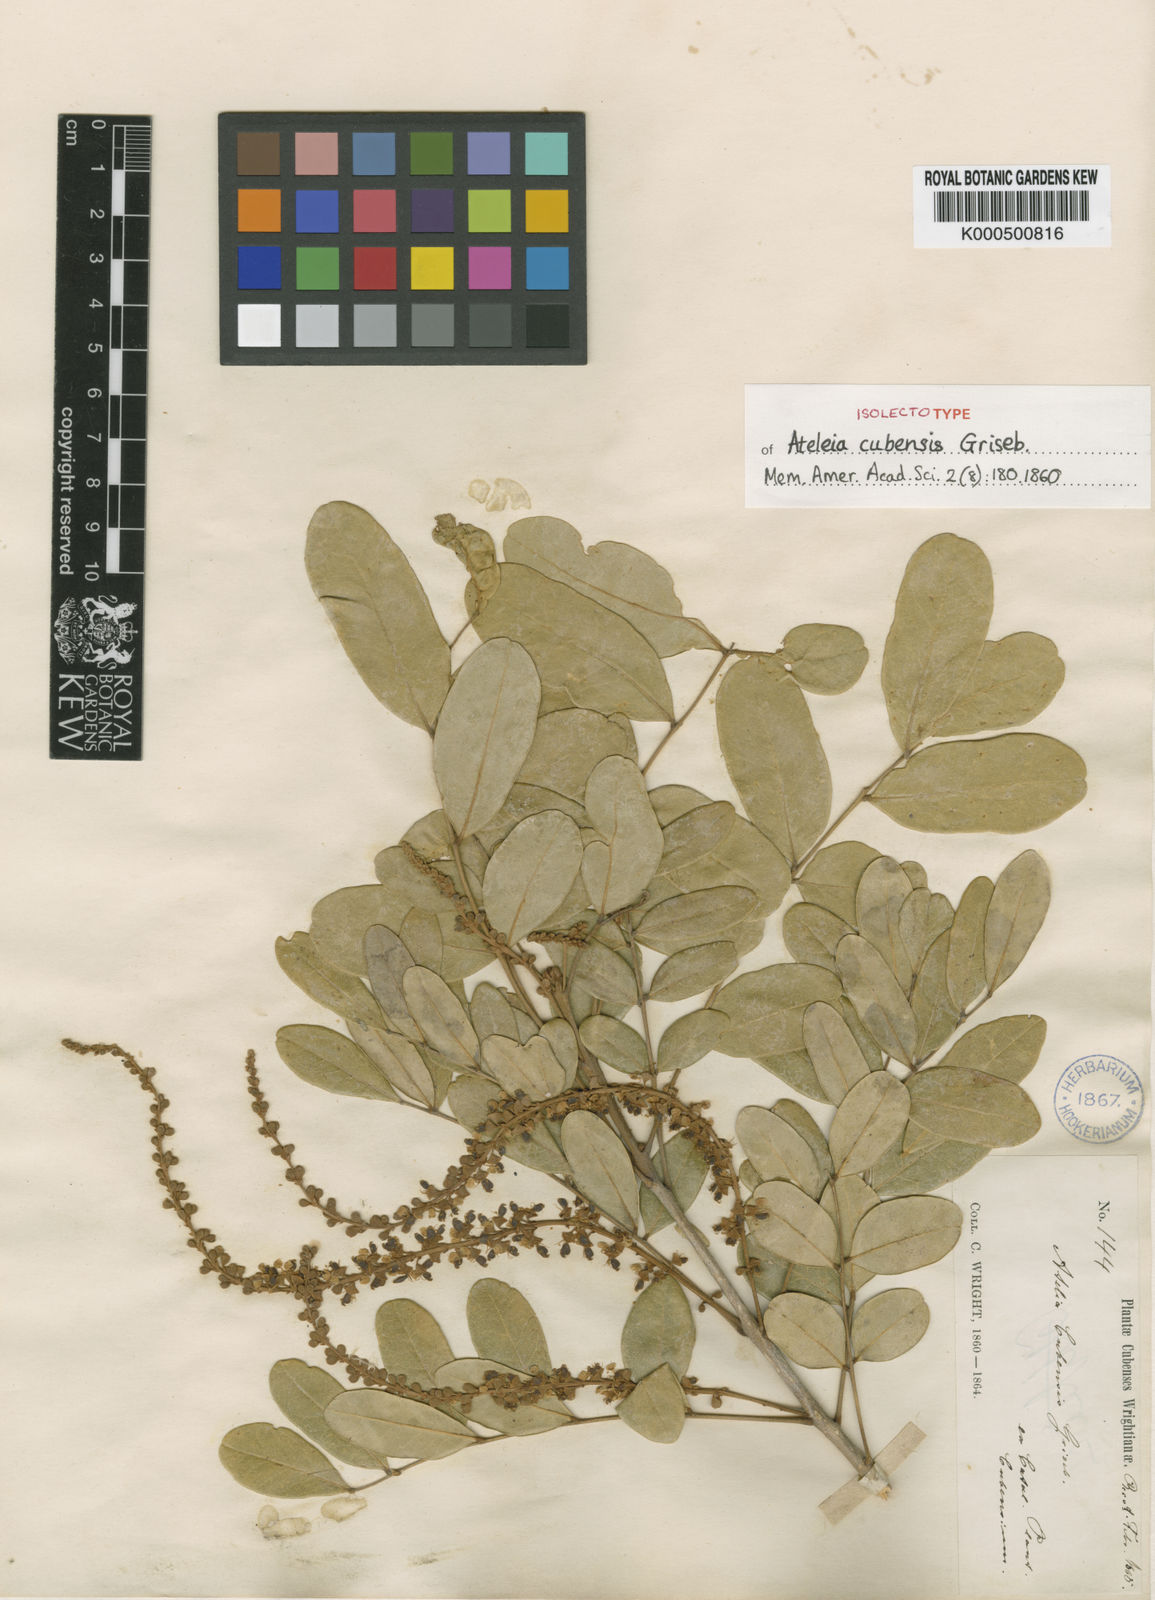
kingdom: Plantae
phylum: Tracheophyta
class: Magnoliopsida
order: Fabales
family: Fabaceae
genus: Ateleia
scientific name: Ateleia cubensis
